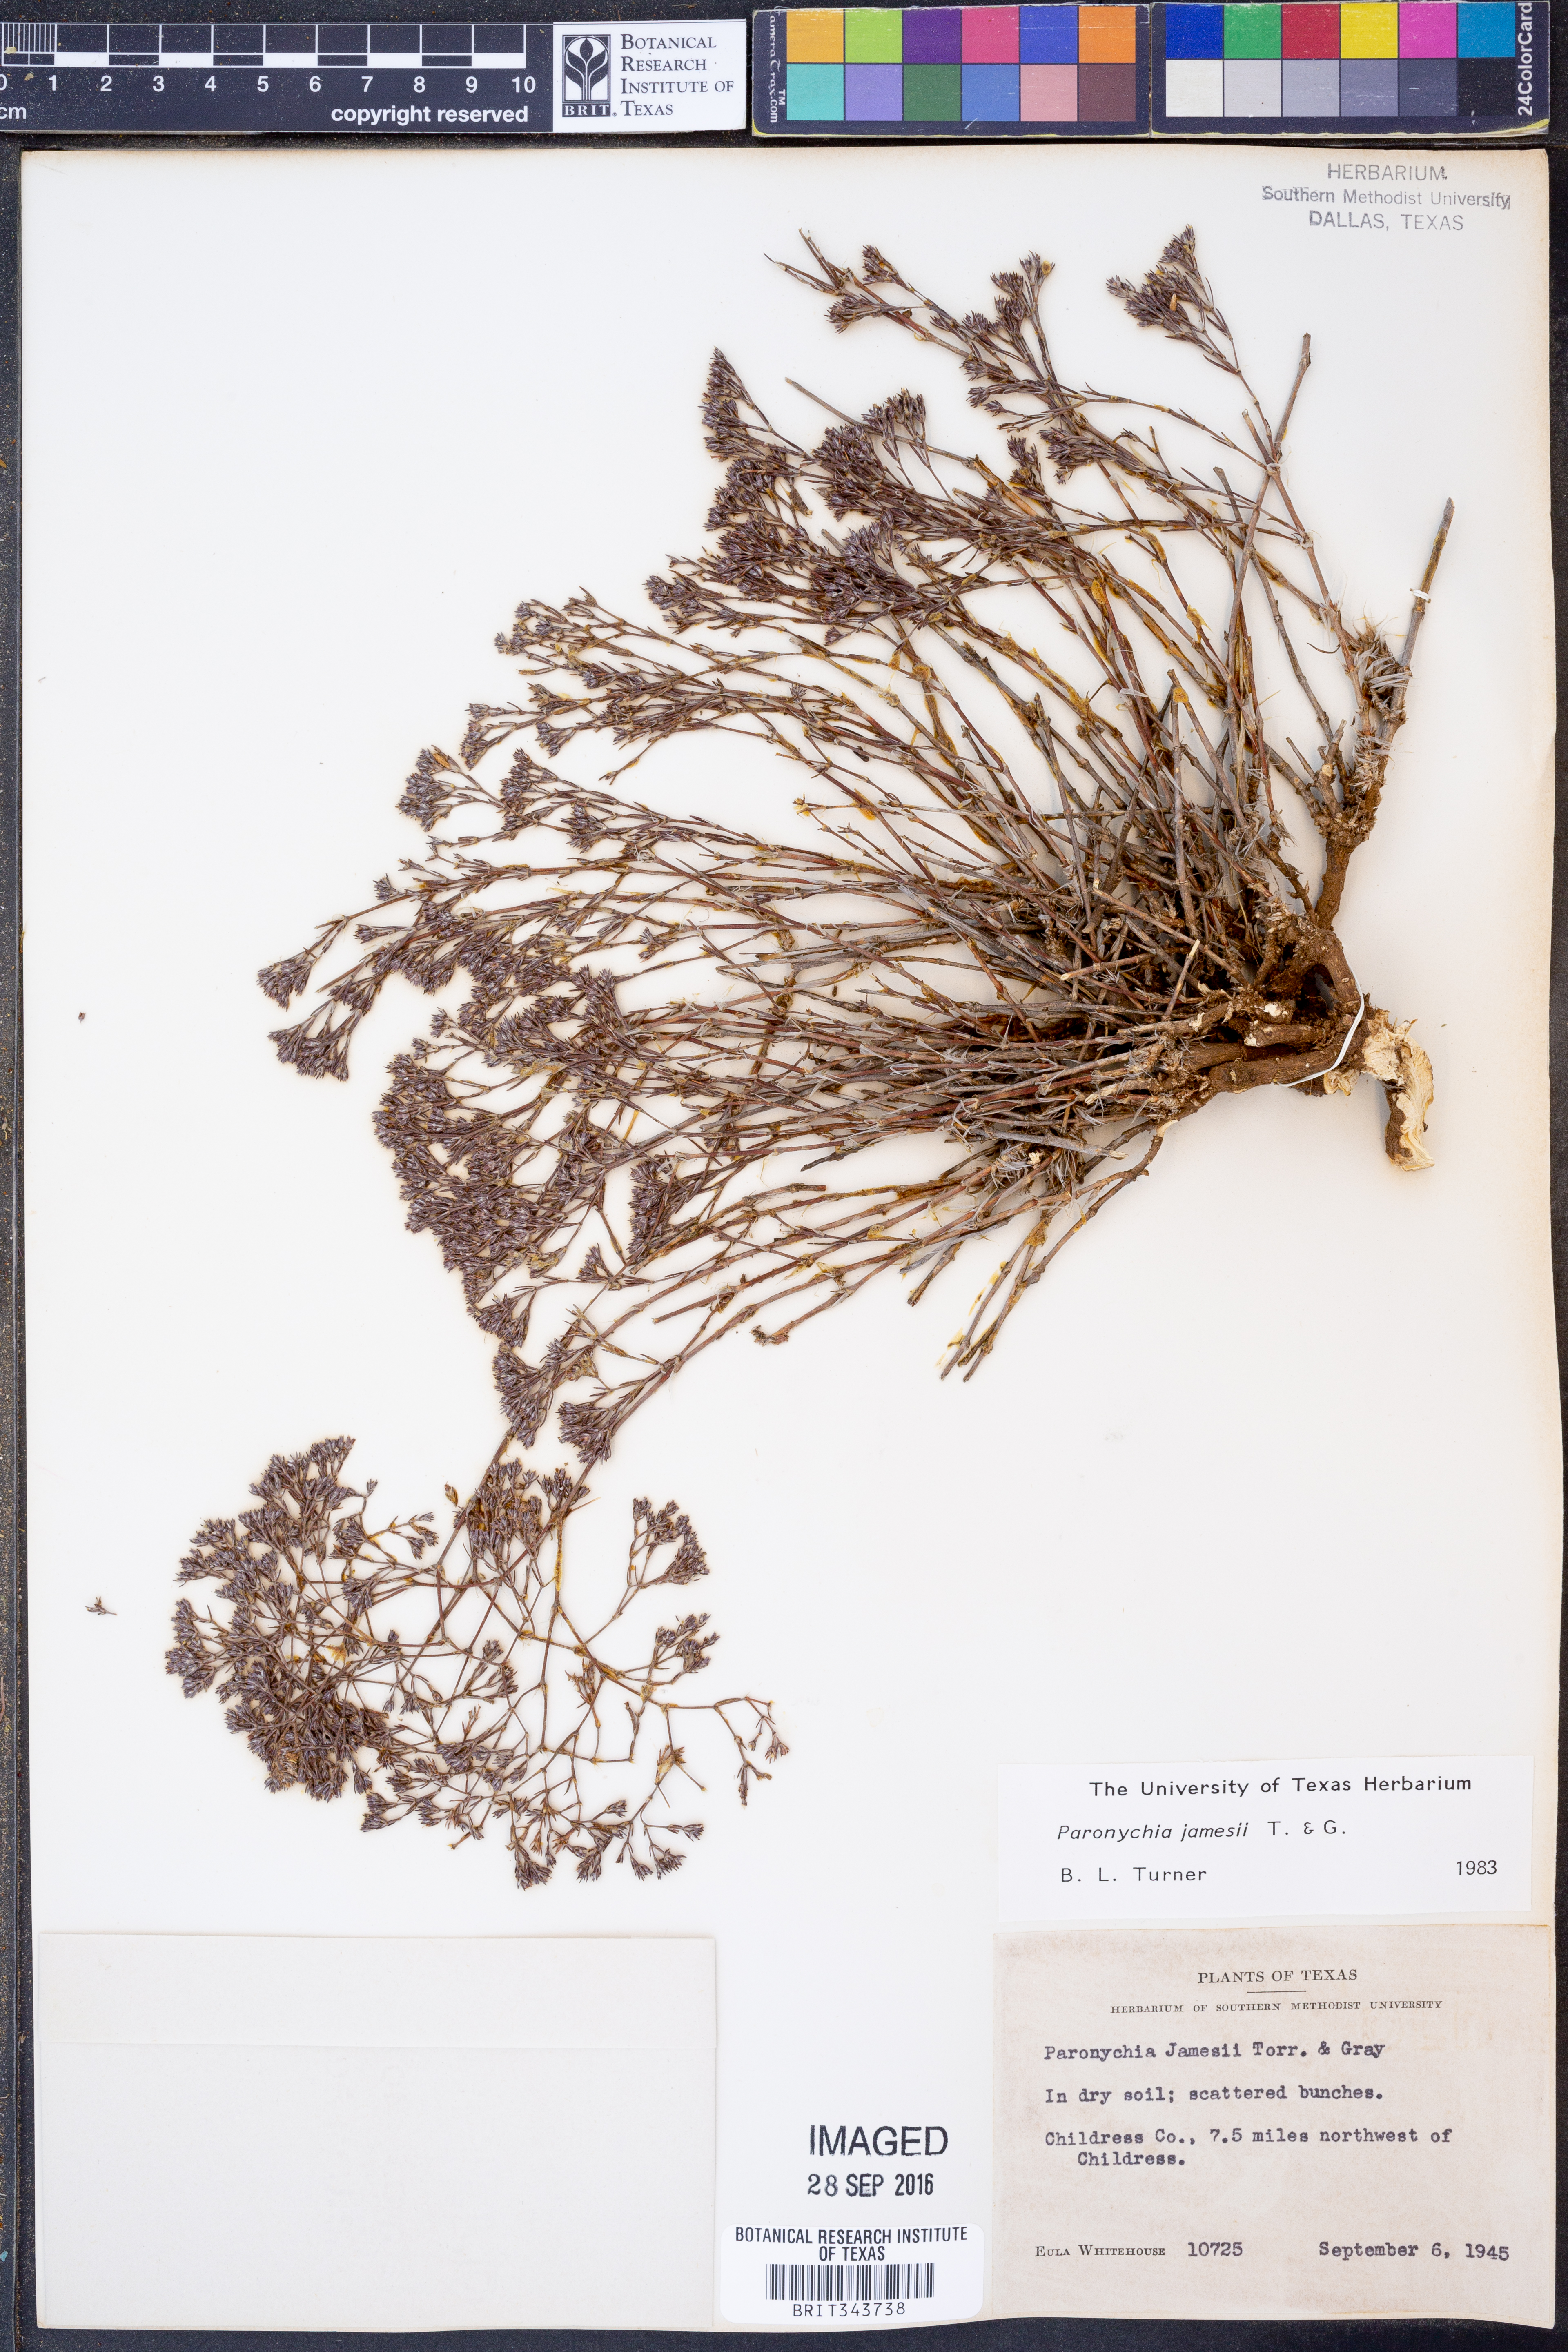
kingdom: Plantae
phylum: Tracheophyta
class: Magnoliopsida
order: Caryophyllales
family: Caryophyllaceae
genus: Paronychia
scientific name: Paronychia jamesii
